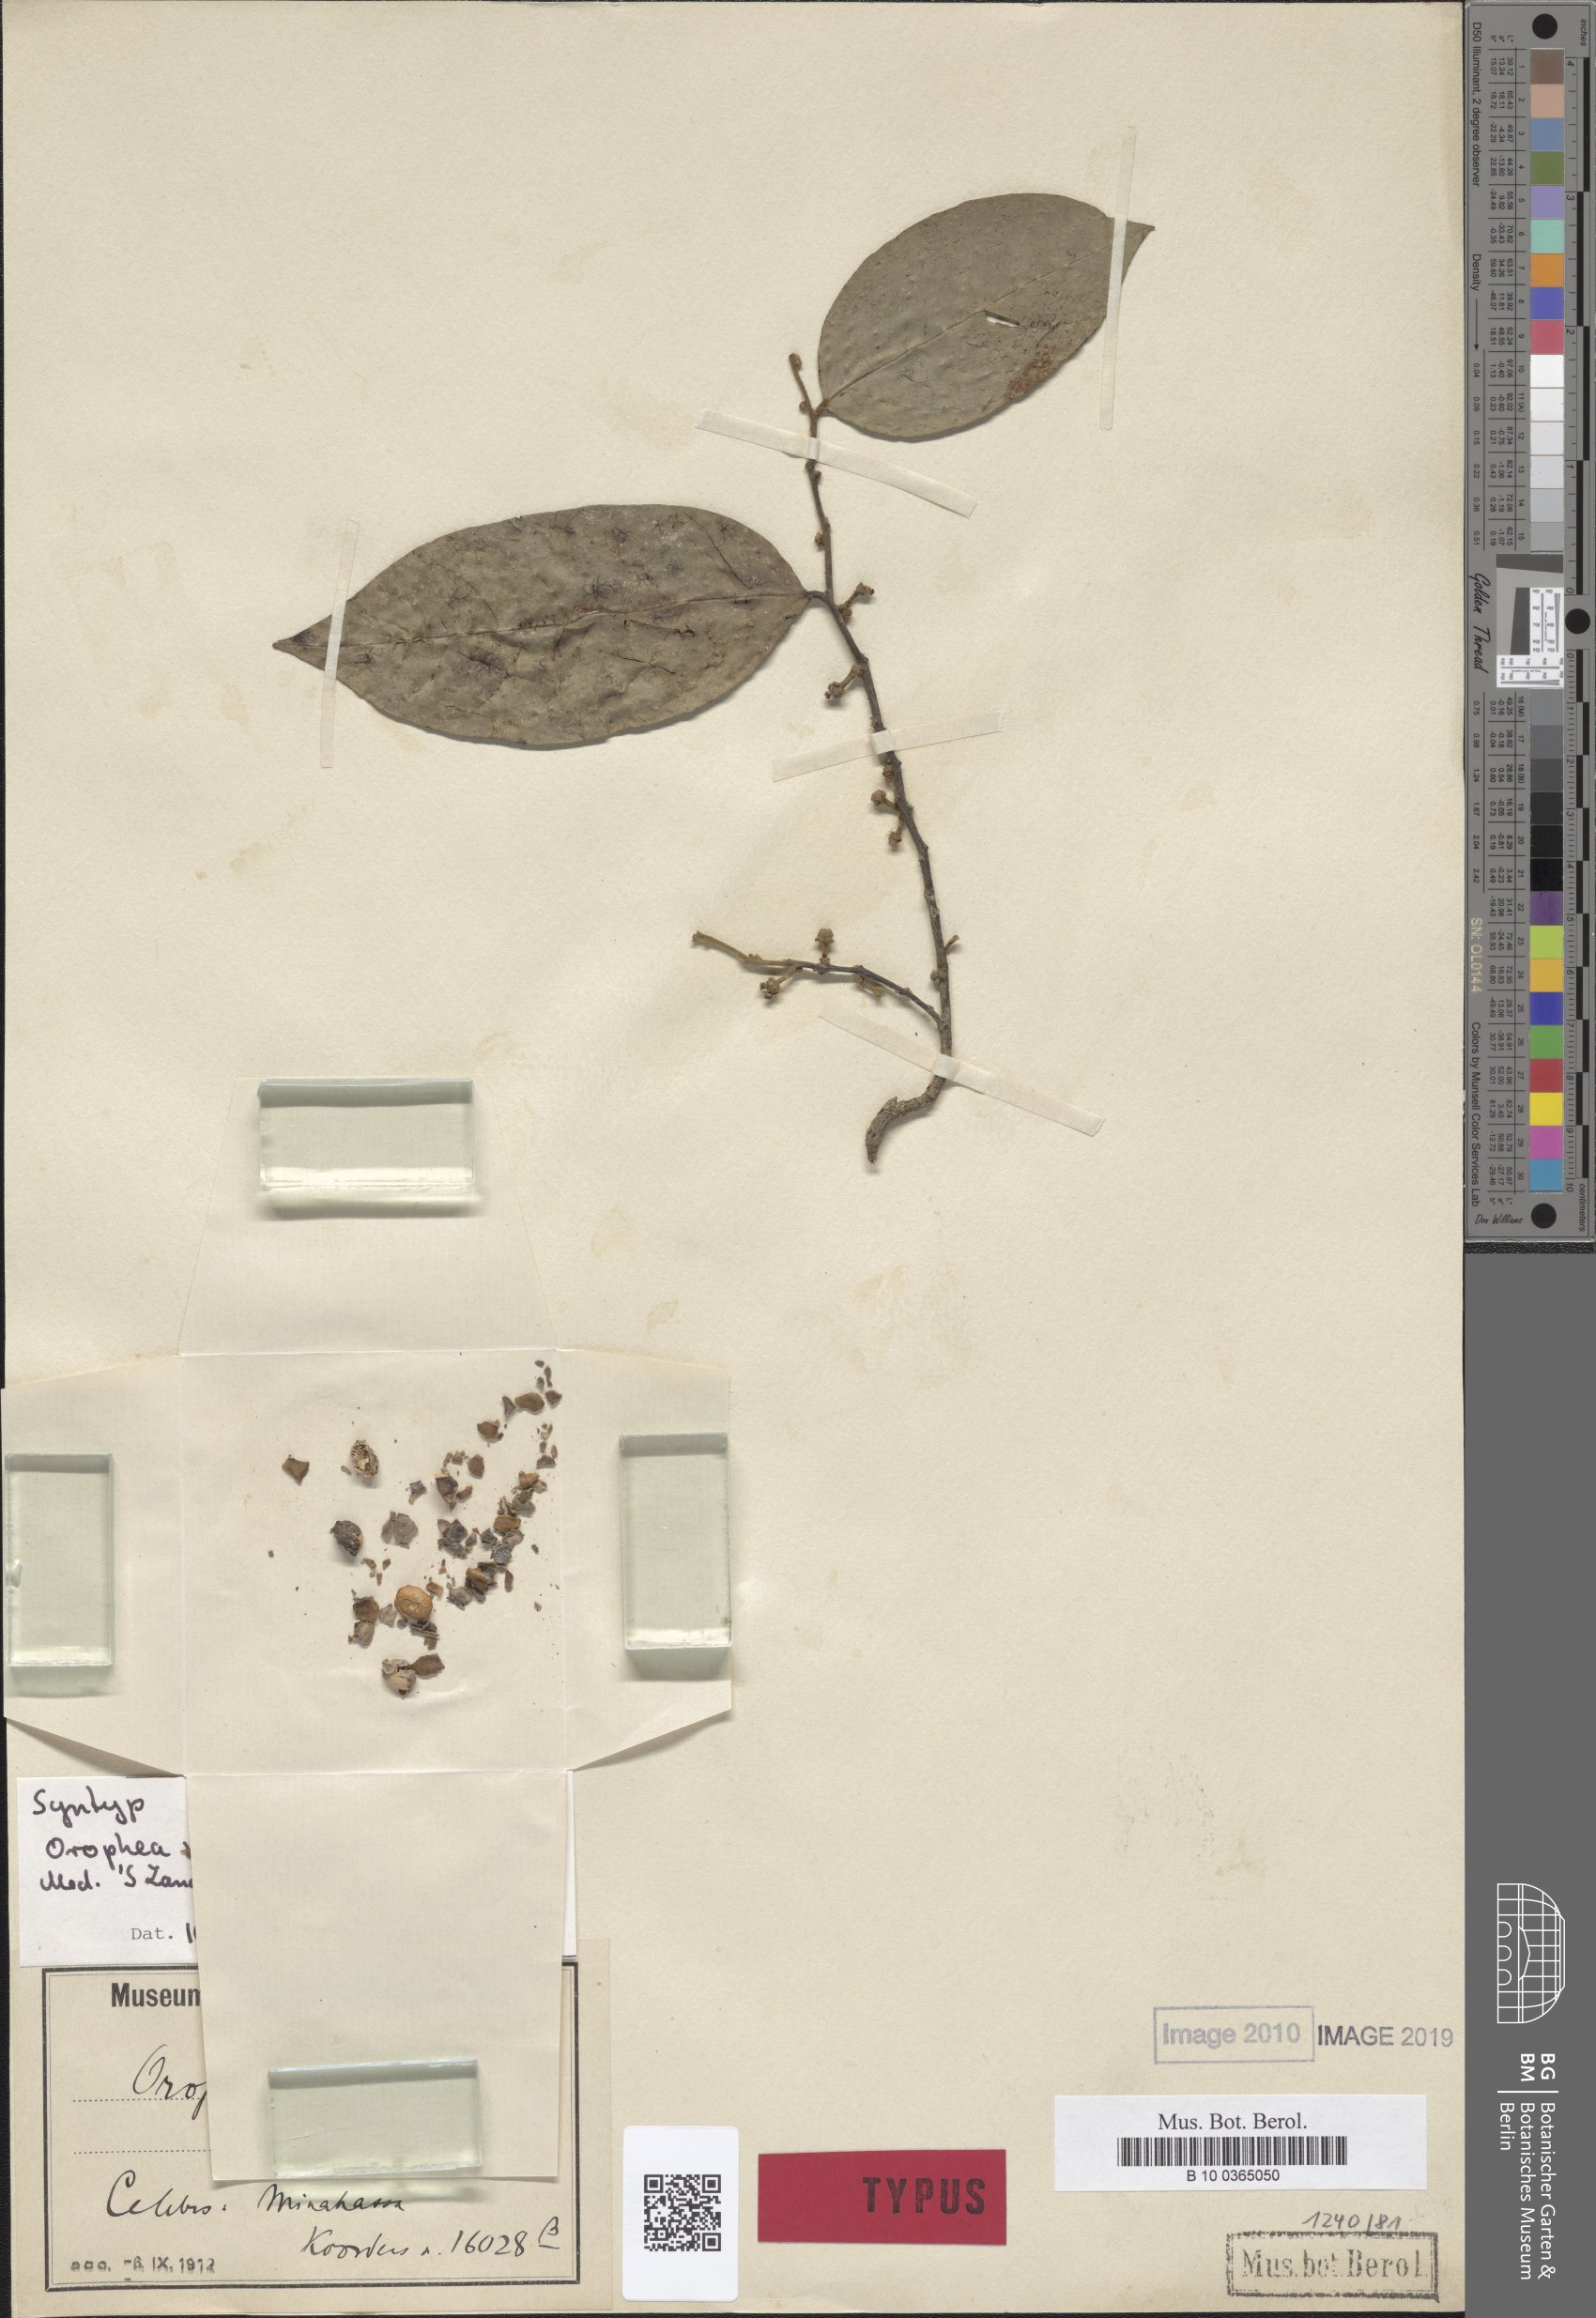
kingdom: Plantae
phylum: Tracheophyta
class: Magnoliopsida
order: Magnoliales
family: Annonaceae
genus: Popowia
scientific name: Popowia pisocarpa
